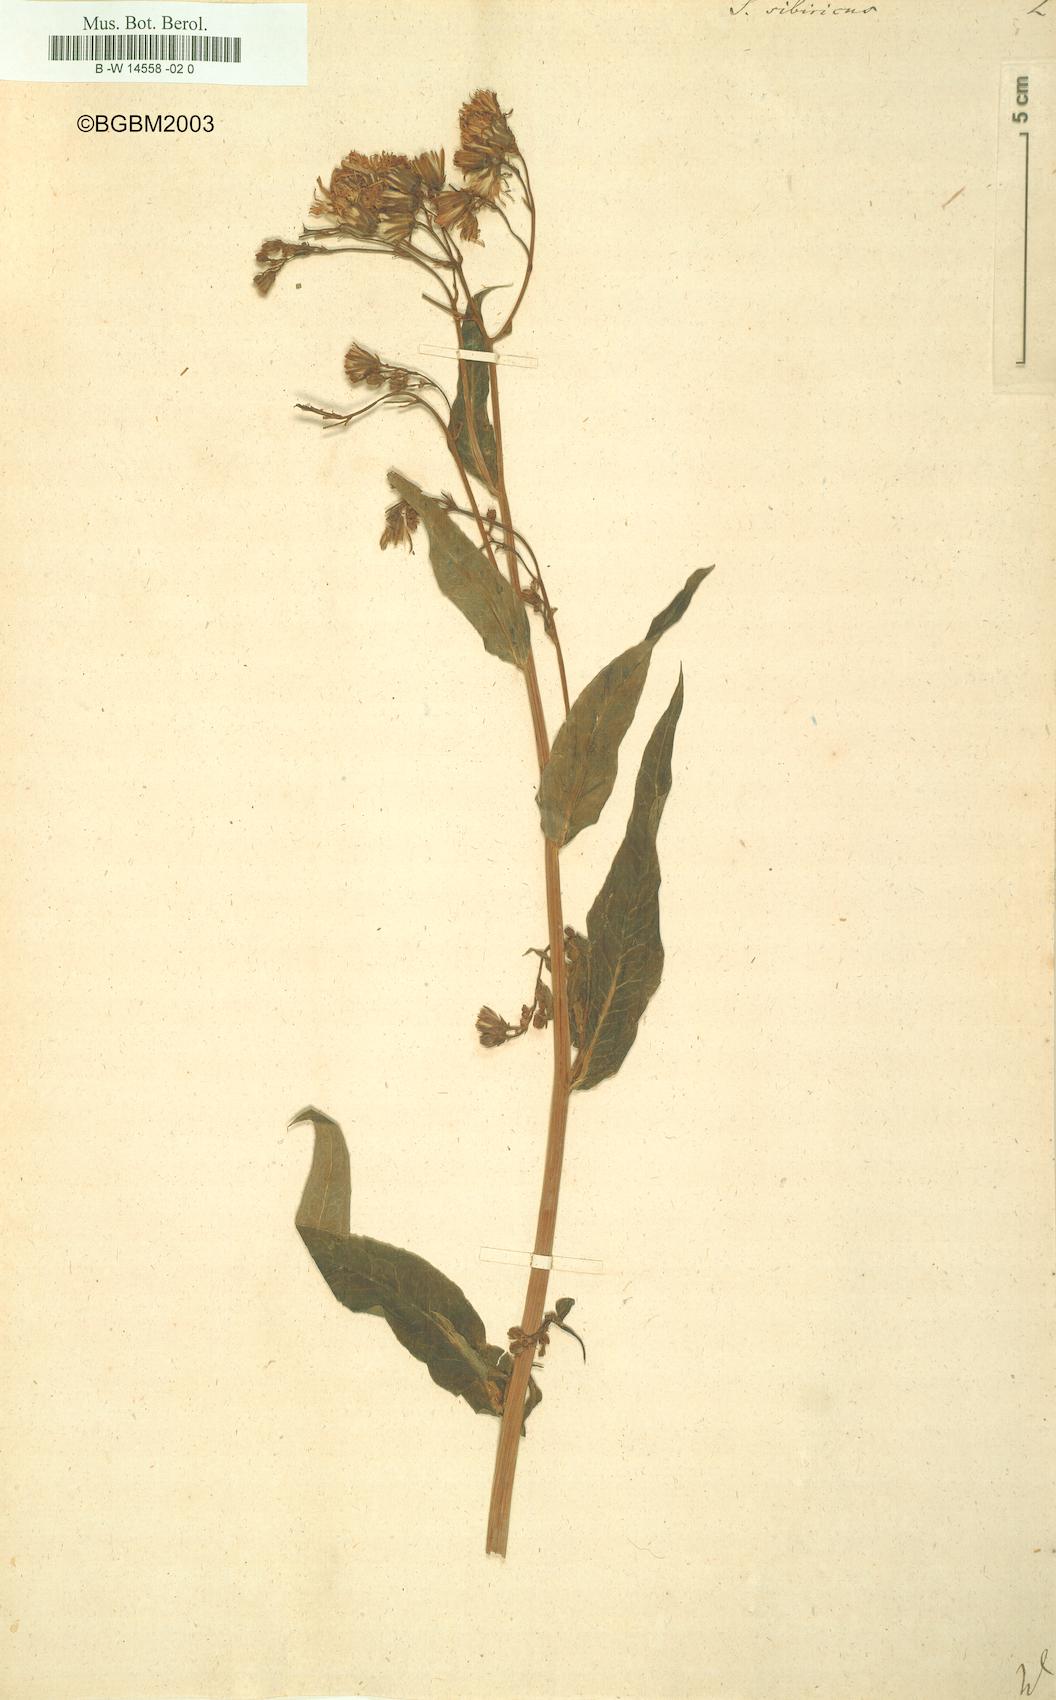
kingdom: Plantae
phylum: Tracheophyta
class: Magnoliopsida
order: Asterales
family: Asteraceae
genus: Lactuca
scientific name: Lactuca
